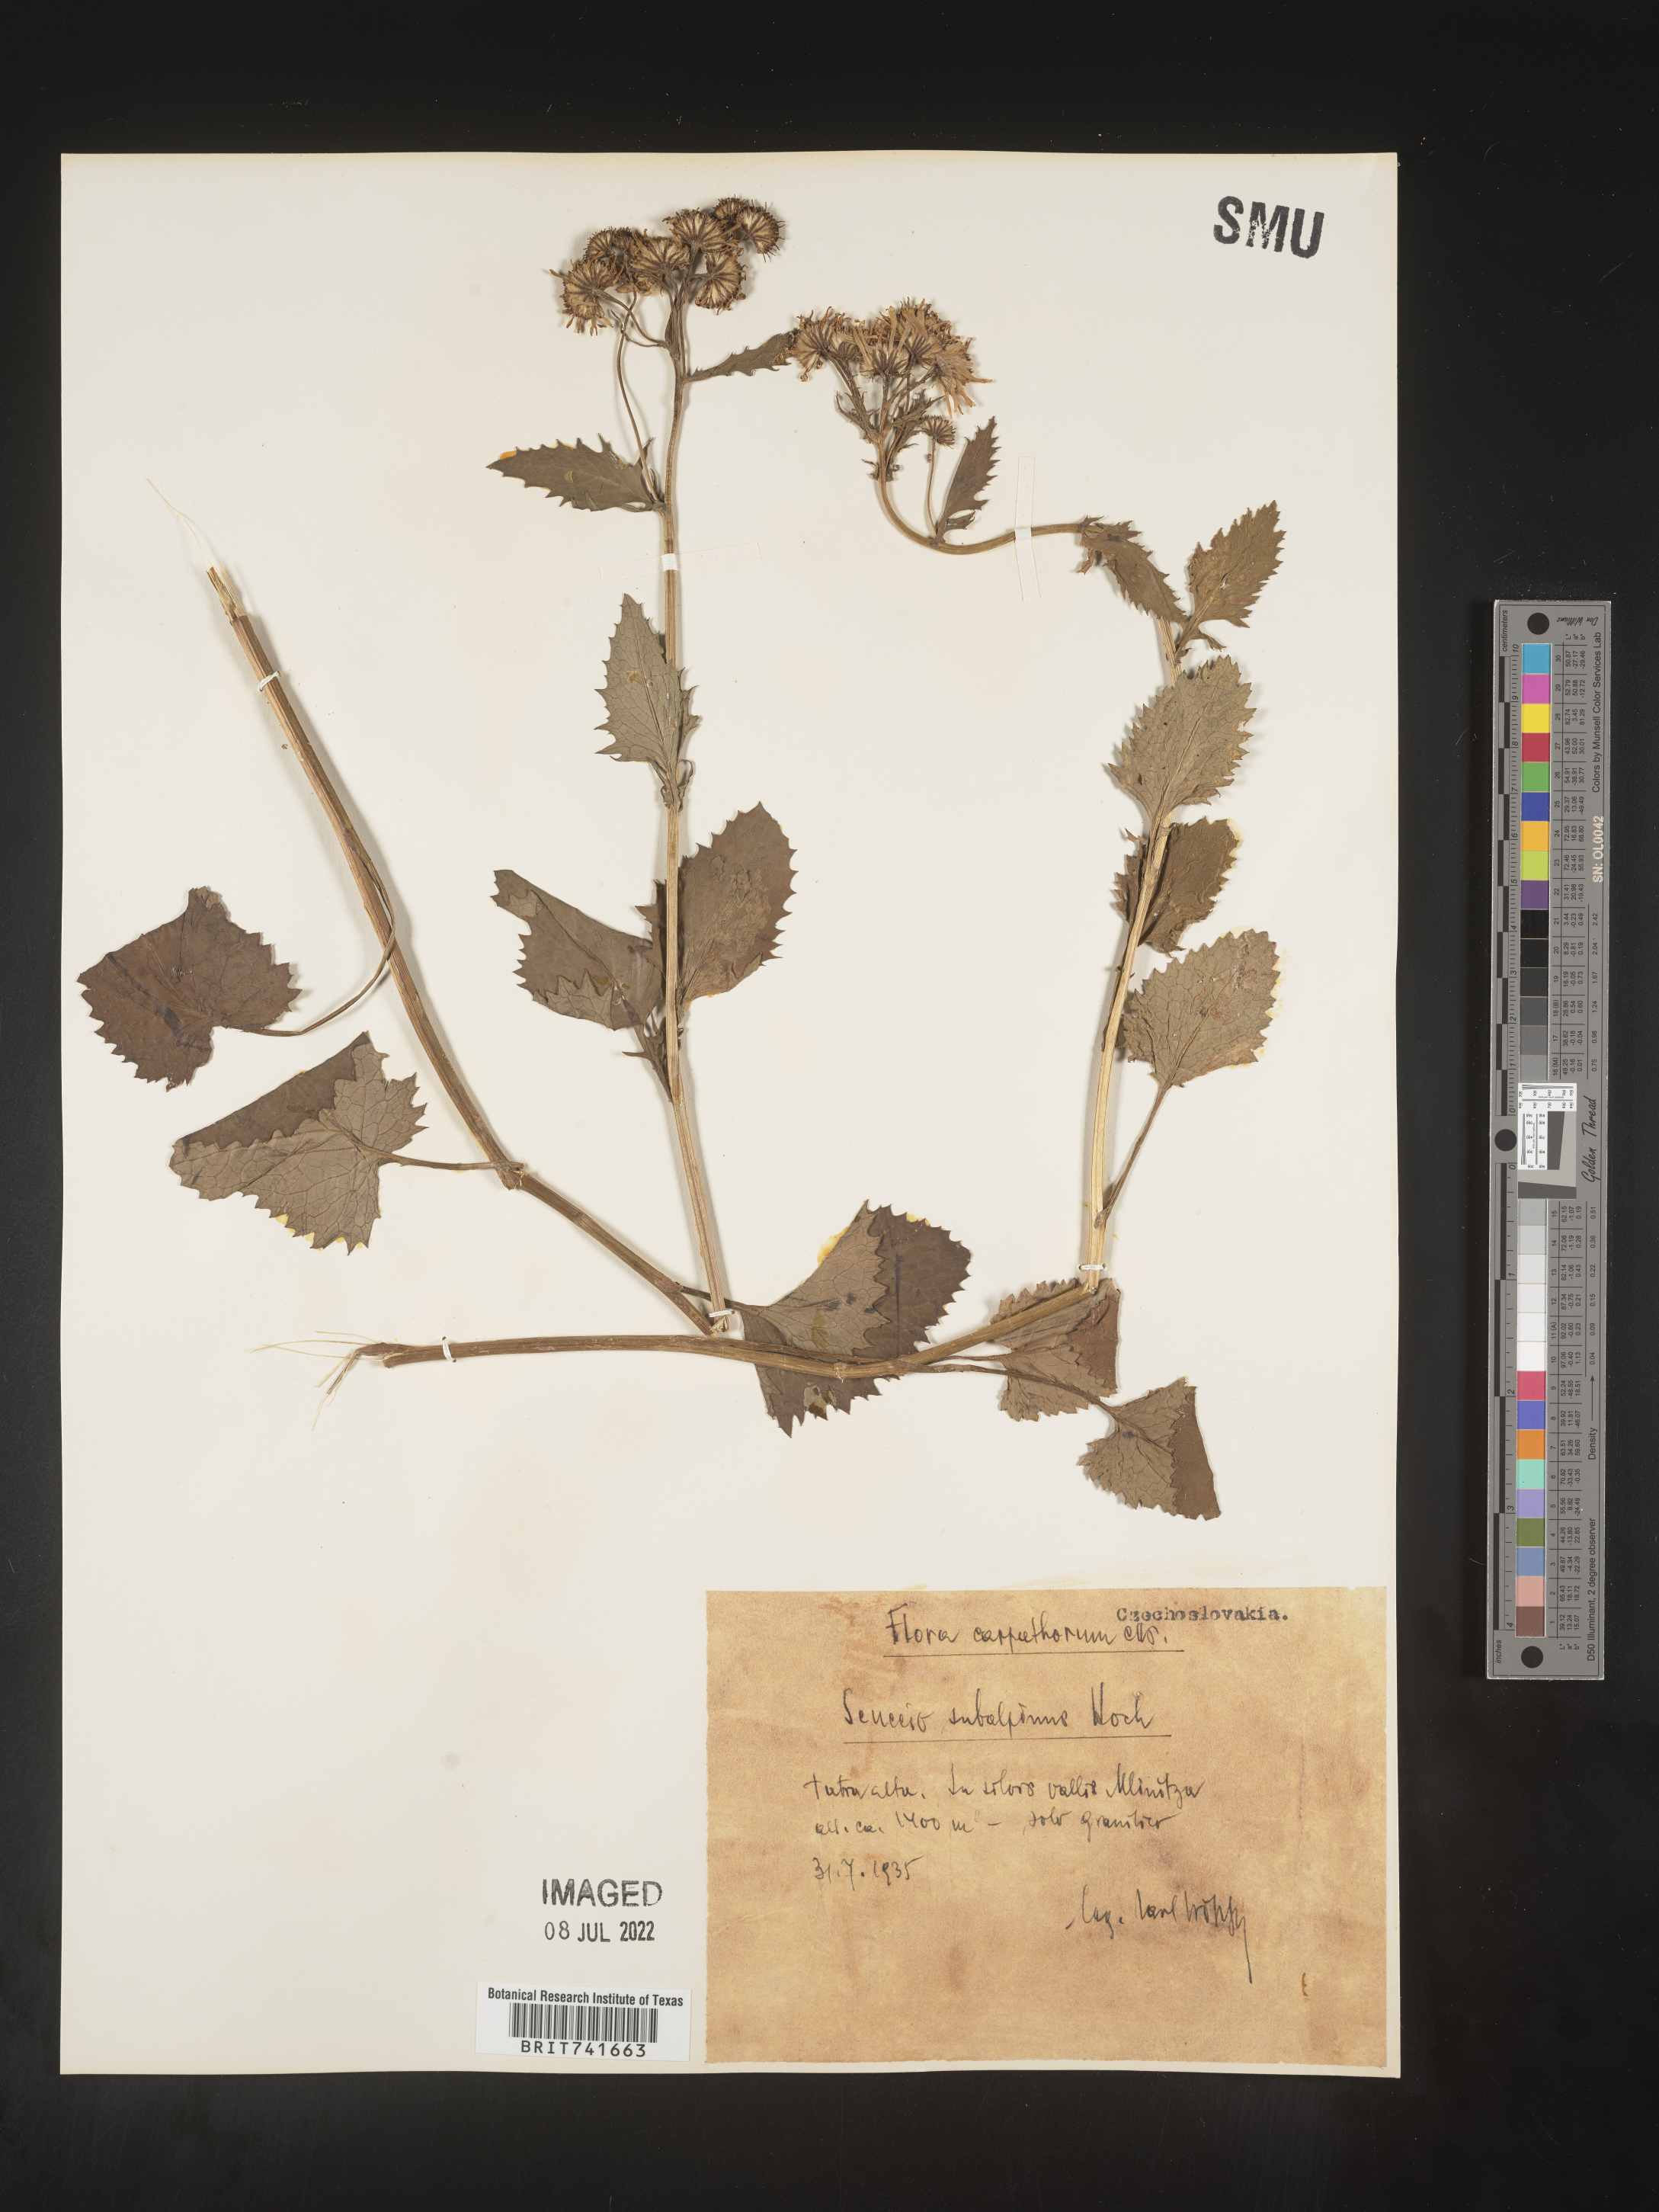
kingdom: Plantae
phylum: Tracheophyta
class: Magnoliopsida
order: Asterales
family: Asteraceae
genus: Senecio
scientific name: Senecio
